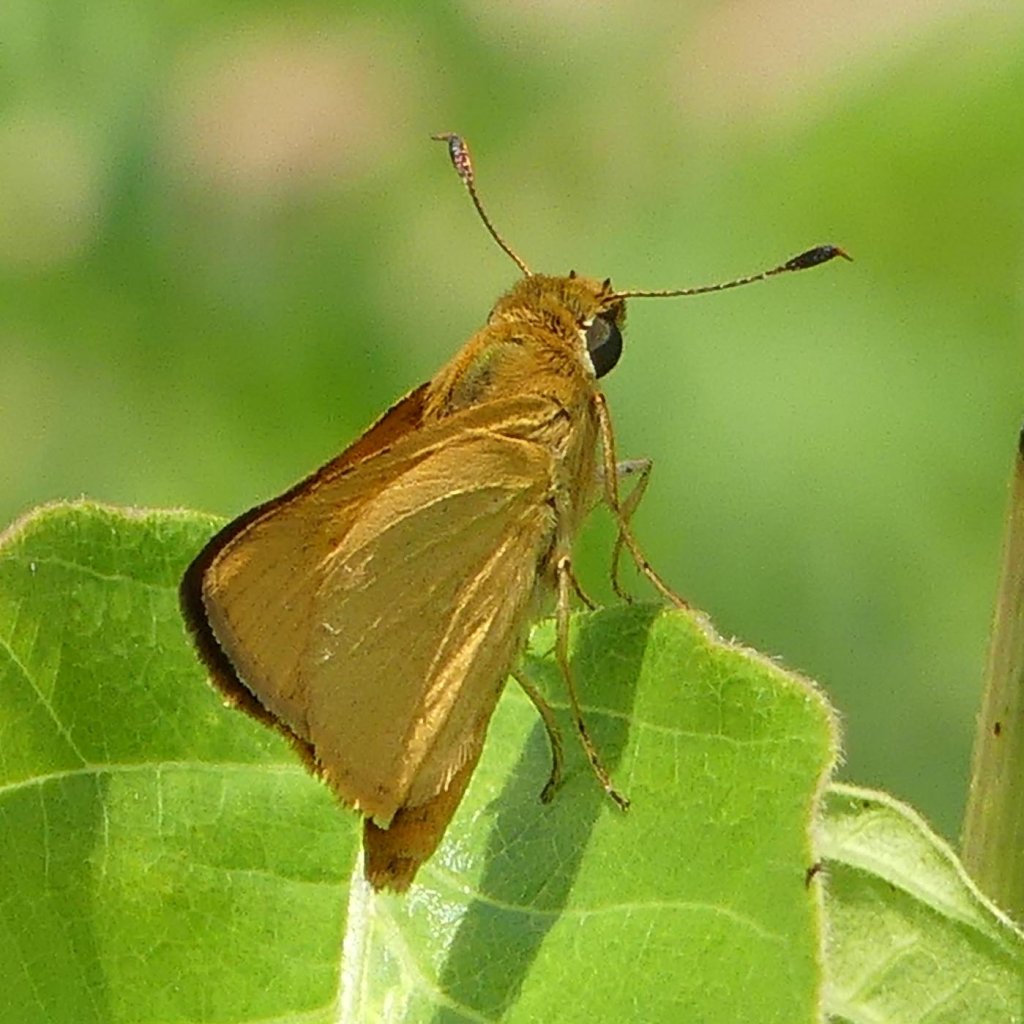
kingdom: Animalia
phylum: Arthropoda
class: Insecta
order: Lepidoptera
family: Hesperiidae
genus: Atrytone
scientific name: Atrytone delaware
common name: Delaware Skipper
